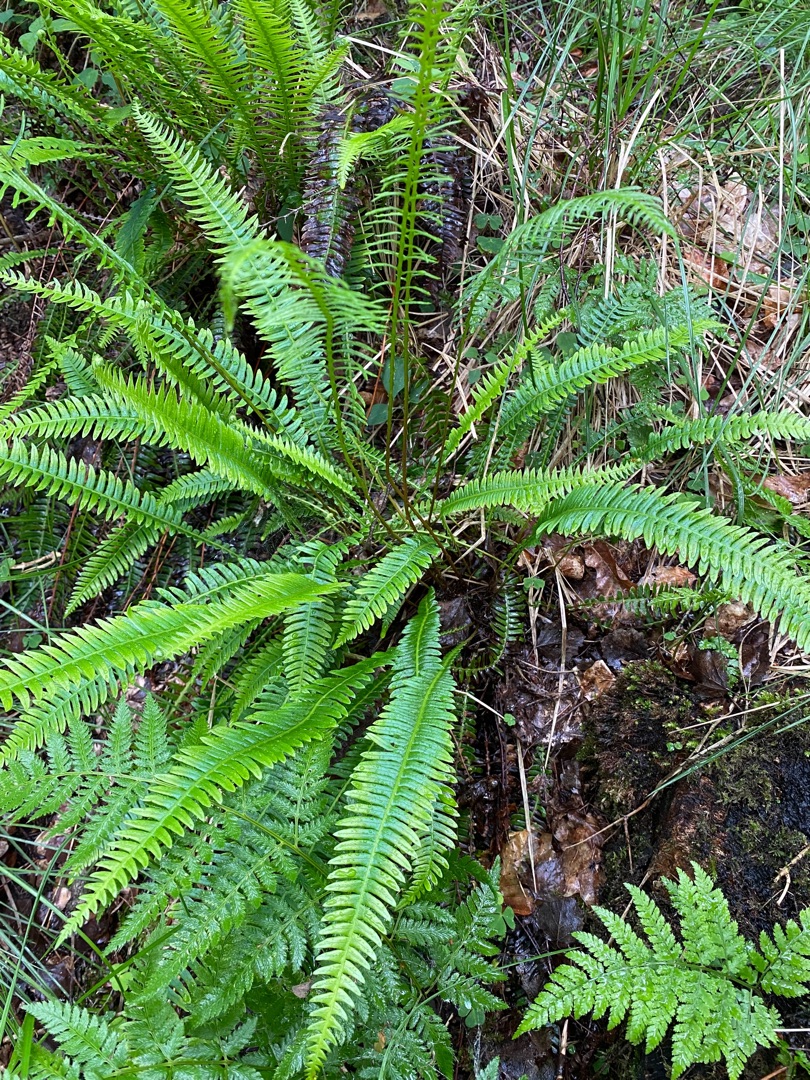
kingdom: Plantae
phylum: Tracheophyta
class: Polypodiopsida
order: Polypodiales
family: Blechnaceae
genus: Struthiopteris
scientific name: Struthiopteris spicant
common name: Kambregne
